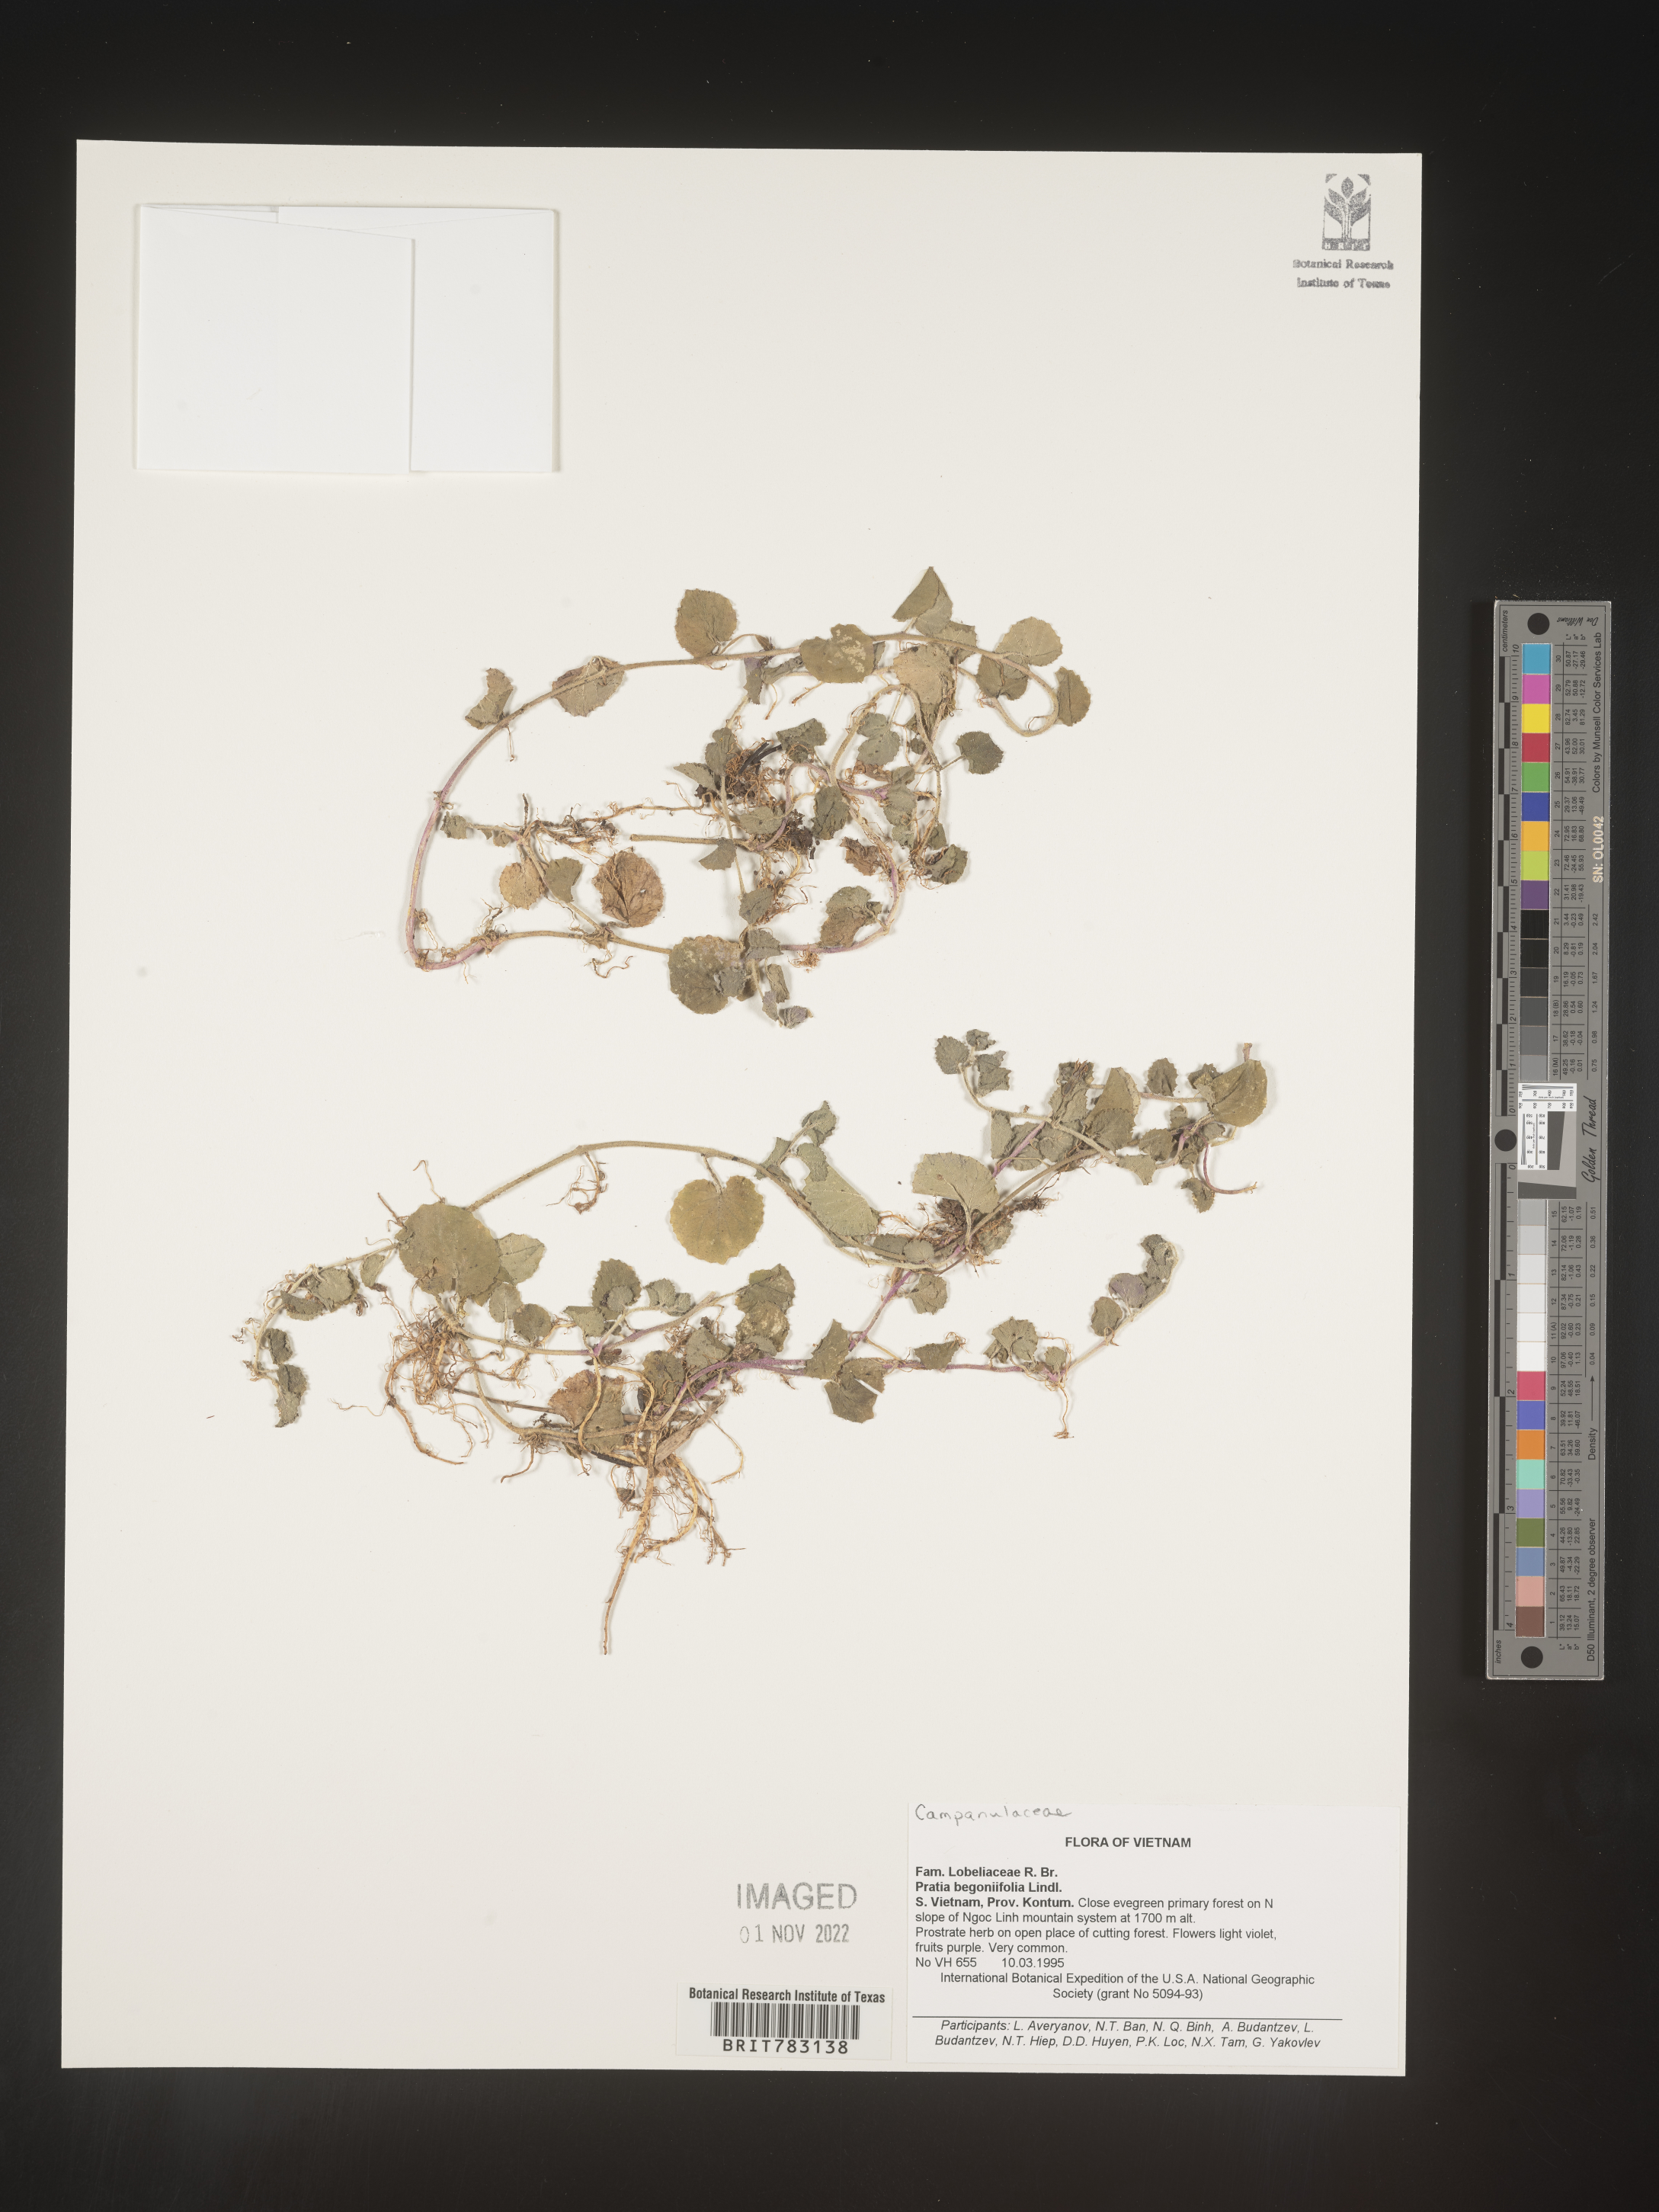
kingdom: Plantae
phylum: Tracheophyta
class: Magnoliopsida
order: Asterales
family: Campanulaceae
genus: Pratia
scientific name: Pratia
